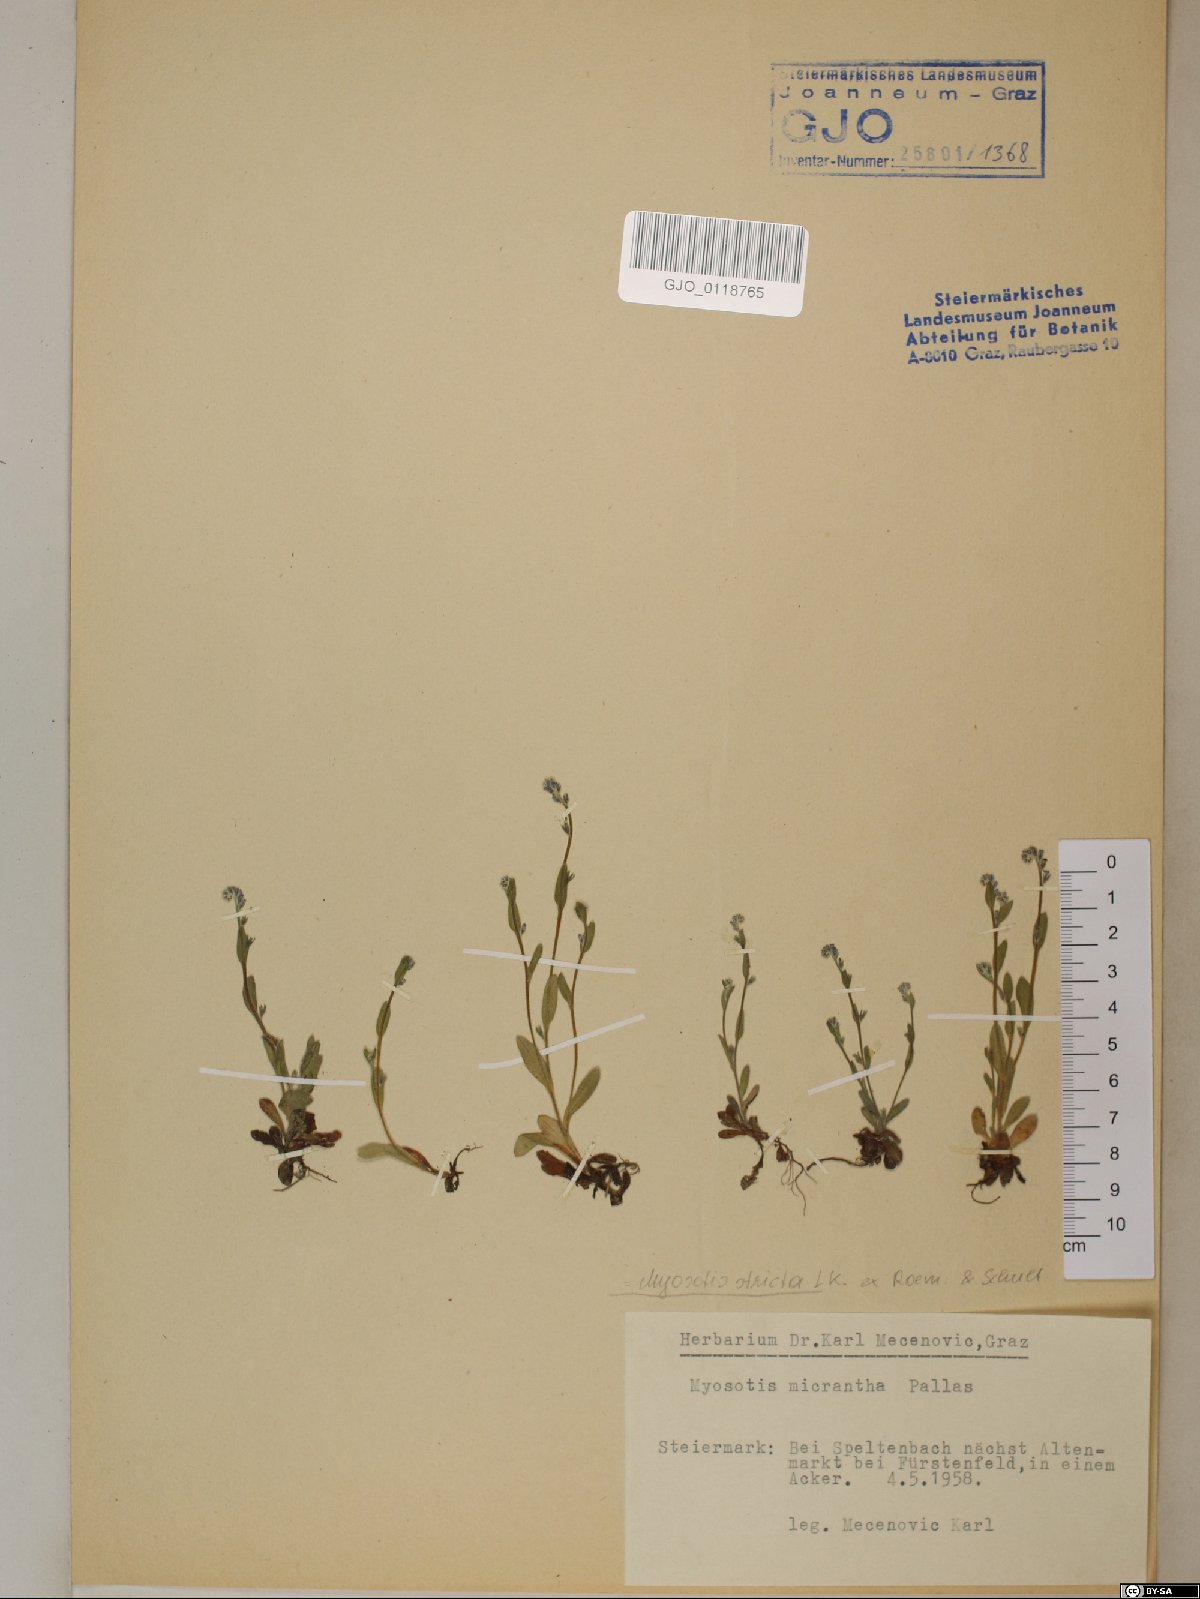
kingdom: Plantae
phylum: Tracheophyta
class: Magnoliopsida
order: Boraginales
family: Boraginaceae
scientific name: Boraginaceae
